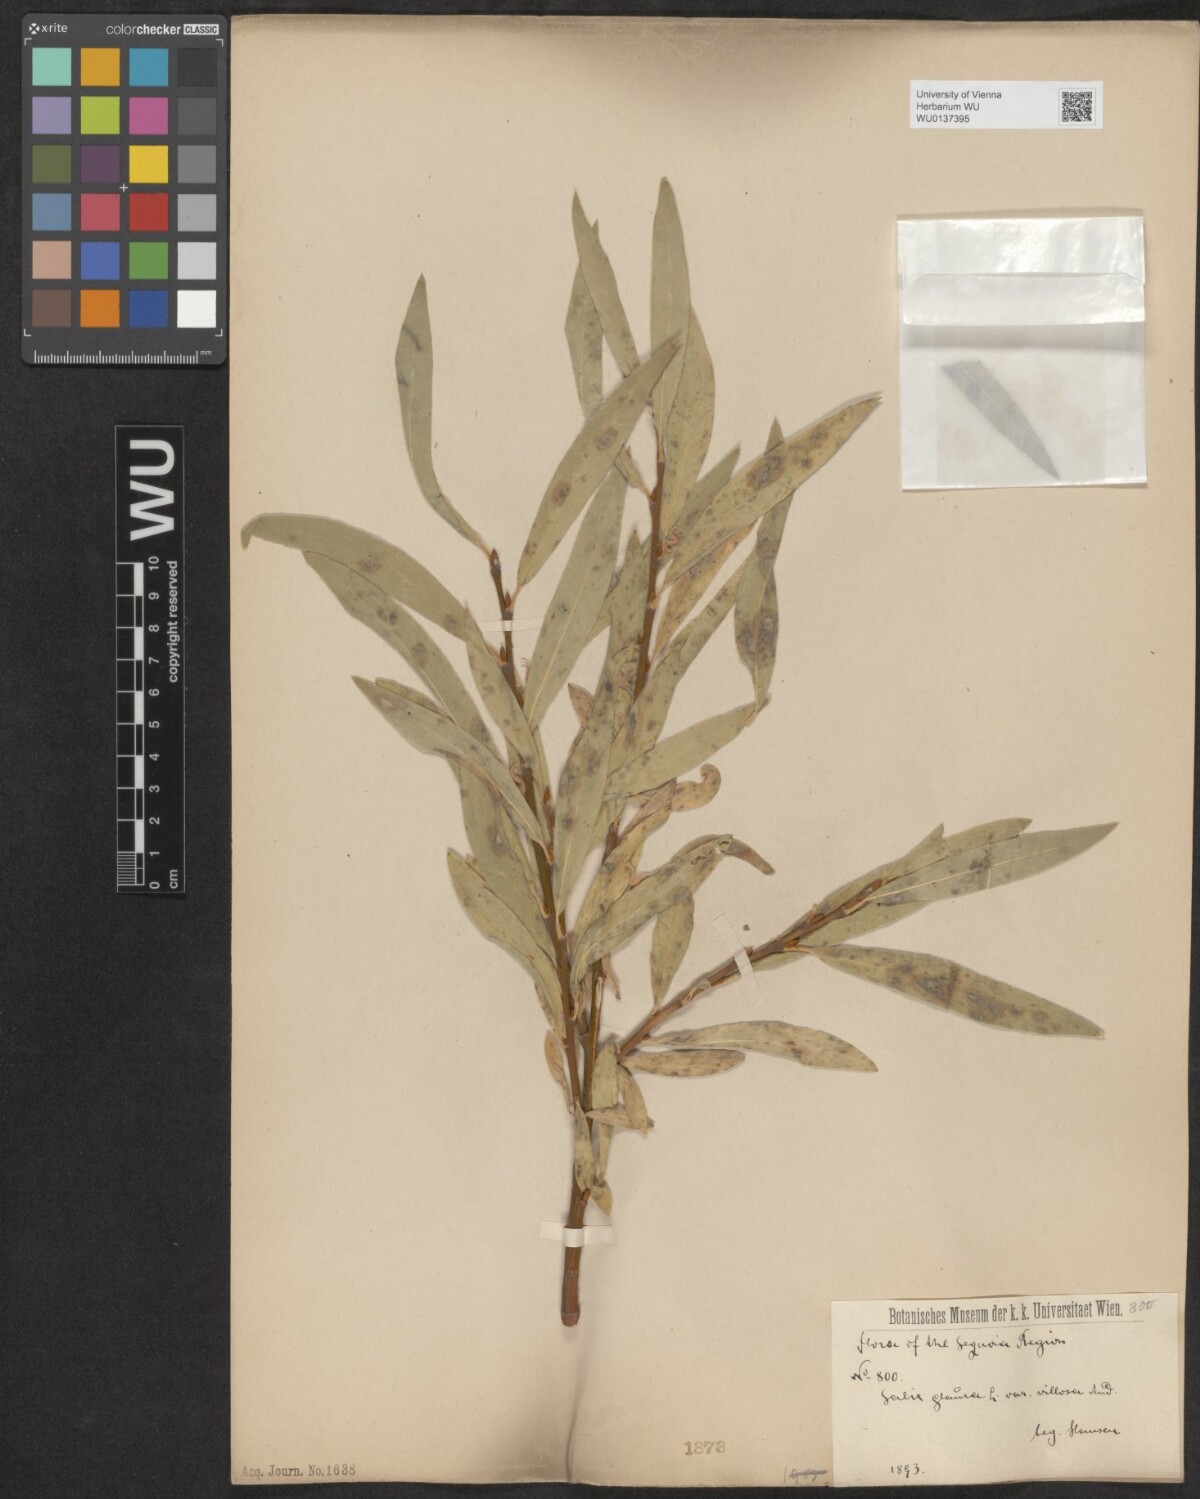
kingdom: Plantae
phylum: Tracheophyta
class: Magnoliopsida
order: Malpighiales
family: Salicaceae
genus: Salix
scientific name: Salix glauca
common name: Glaucous willow
